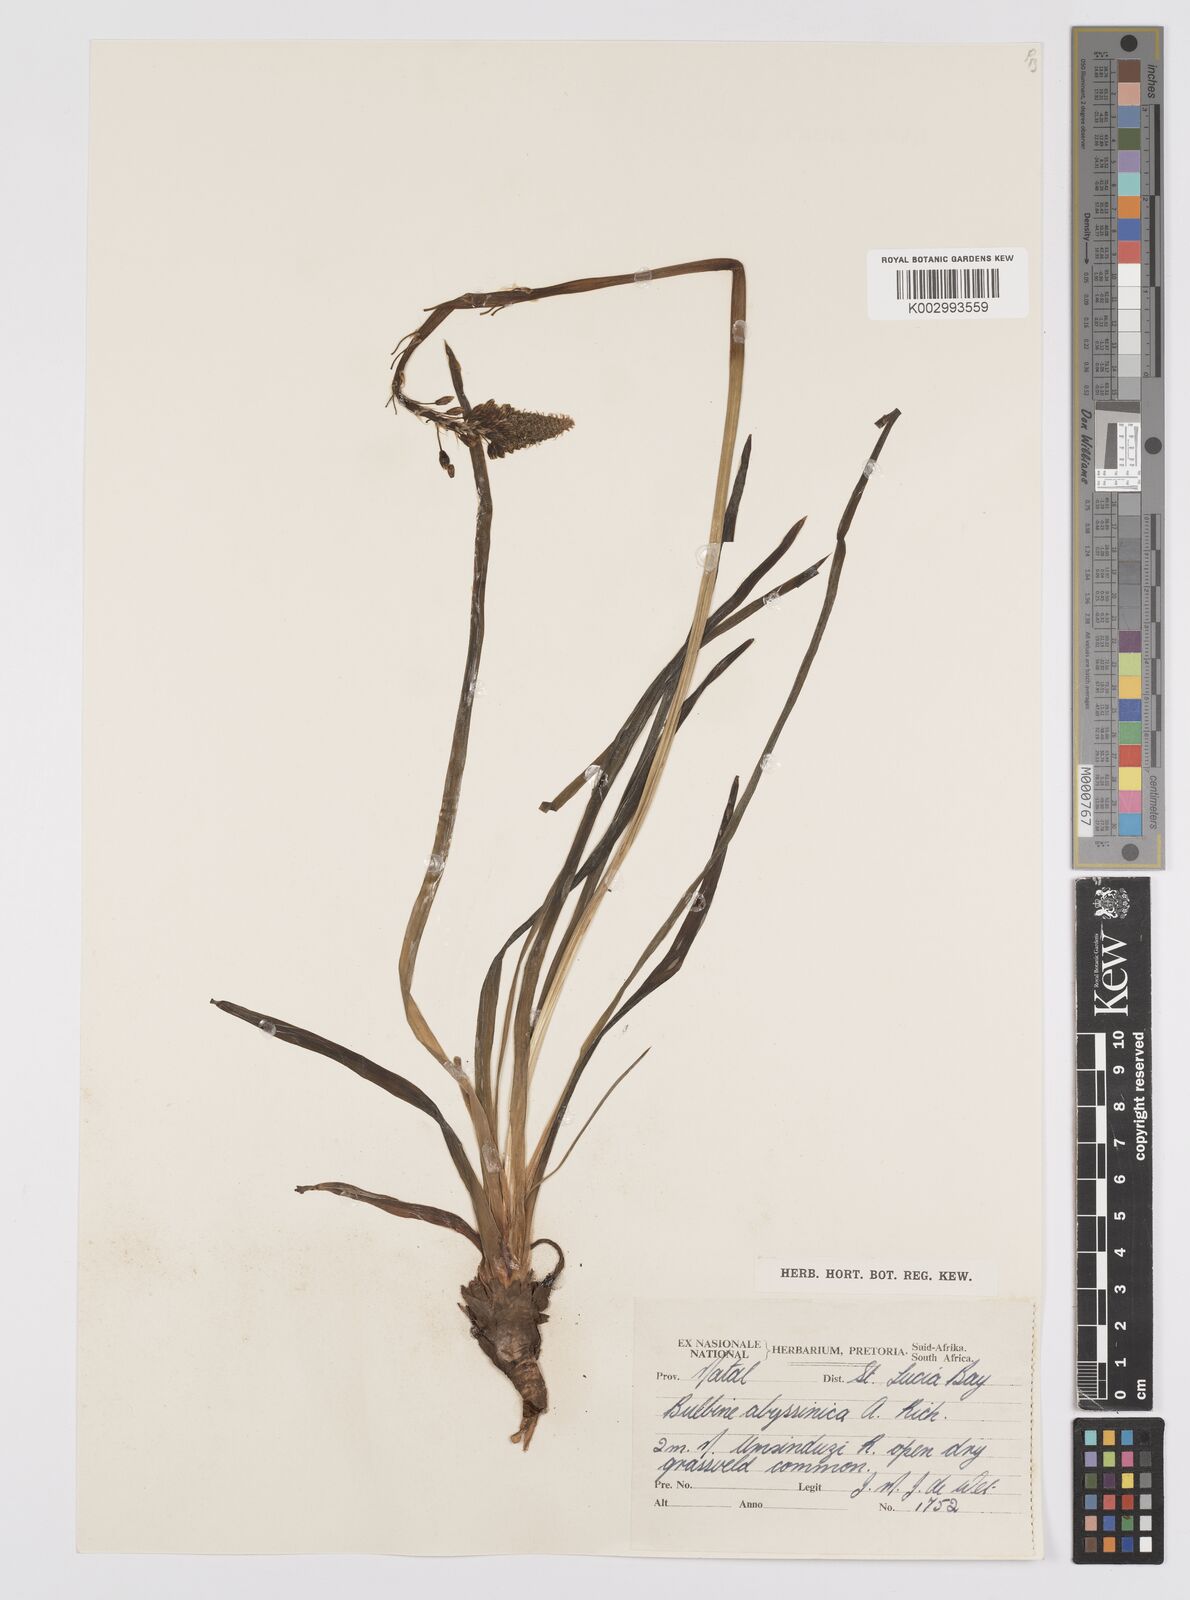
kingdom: Plantae
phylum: Tracheophyta
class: Liliopsida
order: Asparagales
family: Asphodelaceae
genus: Bulbine
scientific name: Bulbine asphodeloides
